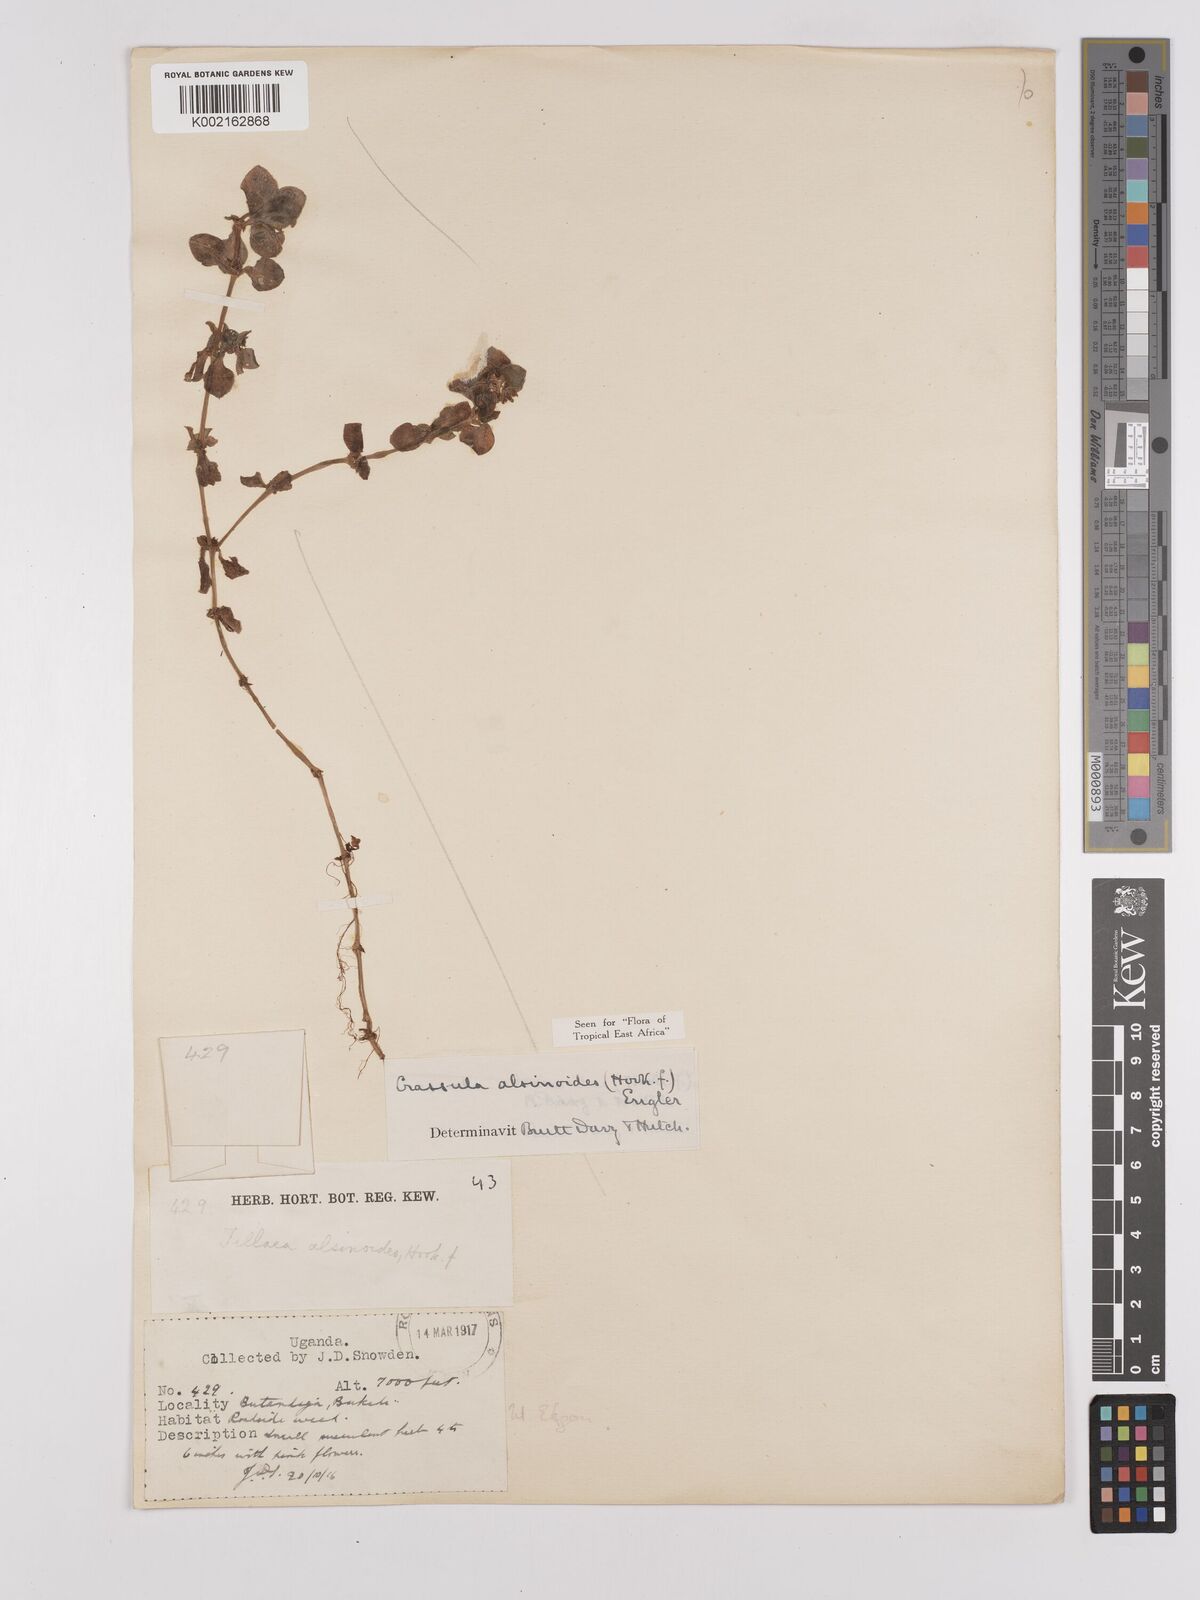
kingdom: Plantae
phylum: Tracheophyta
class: Magnoliopsida
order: Saxifragales
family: Crassulaceae
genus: Crassula
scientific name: Crassula alsinoides
